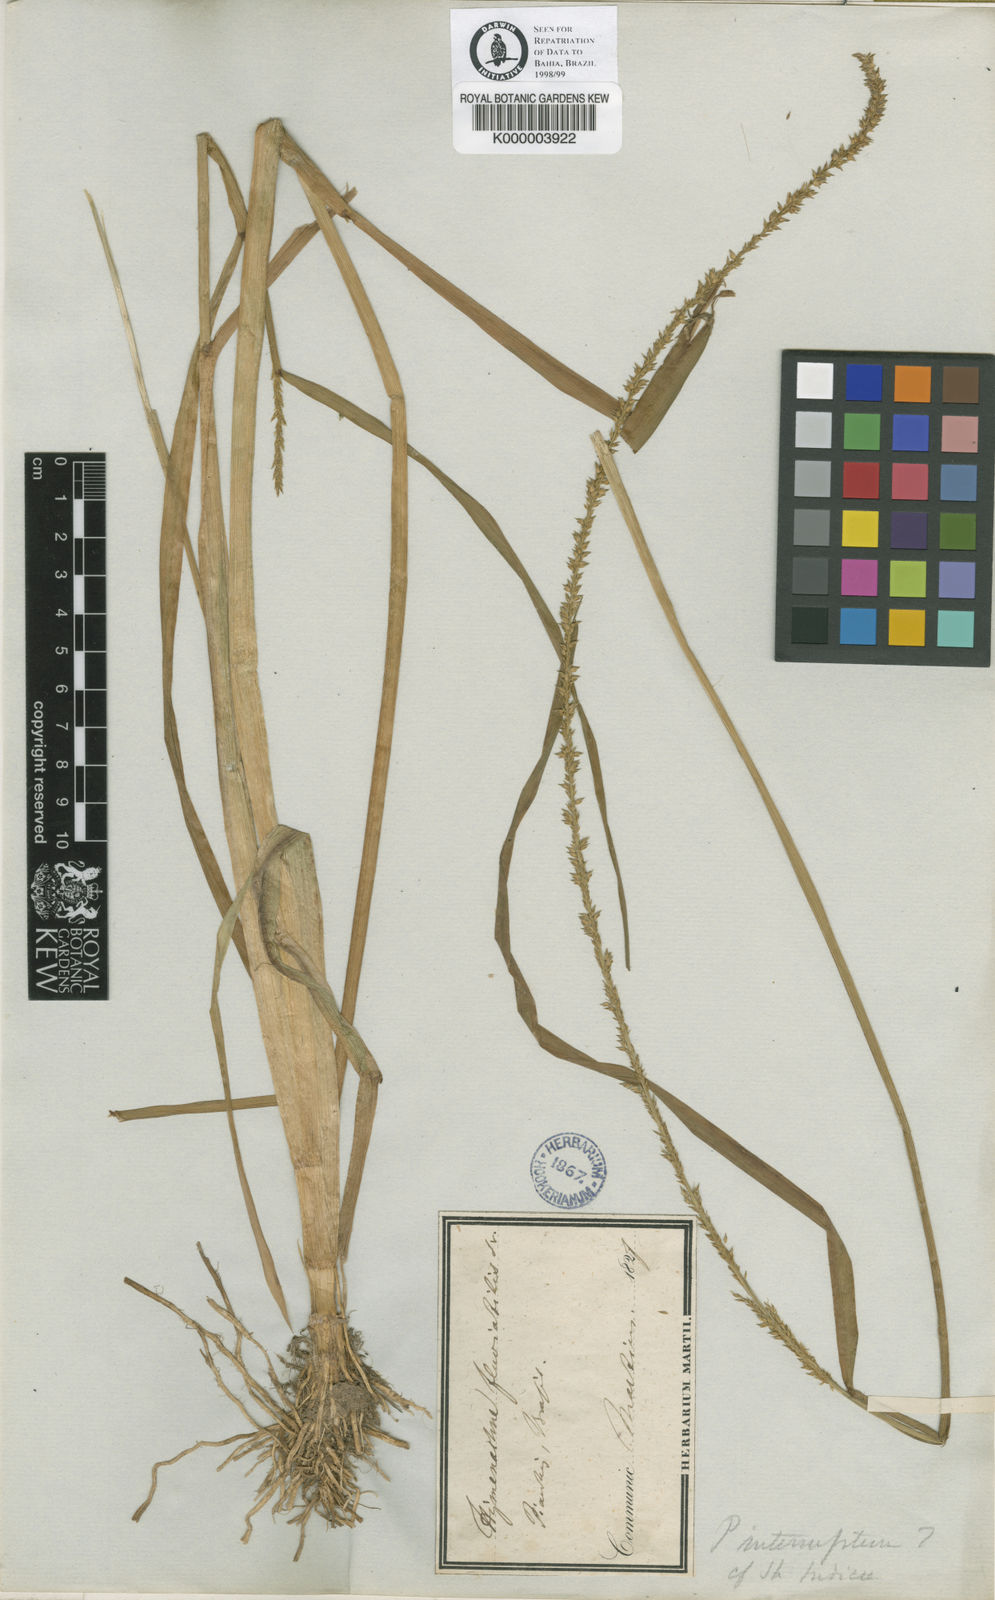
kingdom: Plantae
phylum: Tracheophyta
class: Liliopsida
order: Poales
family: Poaceae
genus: Sacciolepis
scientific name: Sacciolepis vilvoides
